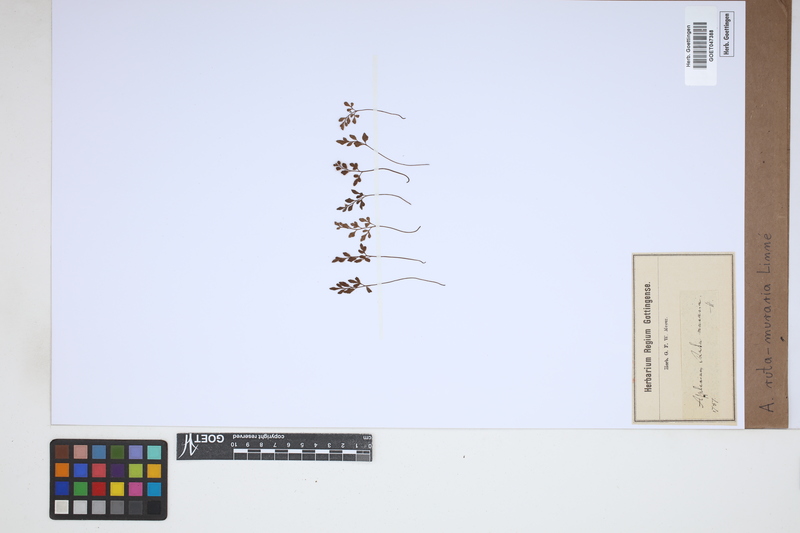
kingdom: Plantae
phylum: Tracheophyta
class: Polypodiopsida
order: Polypodiales
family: Aspleniaceae
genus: Asplenium
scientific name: Asplenium ruta-muraria
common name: Wall-rue
